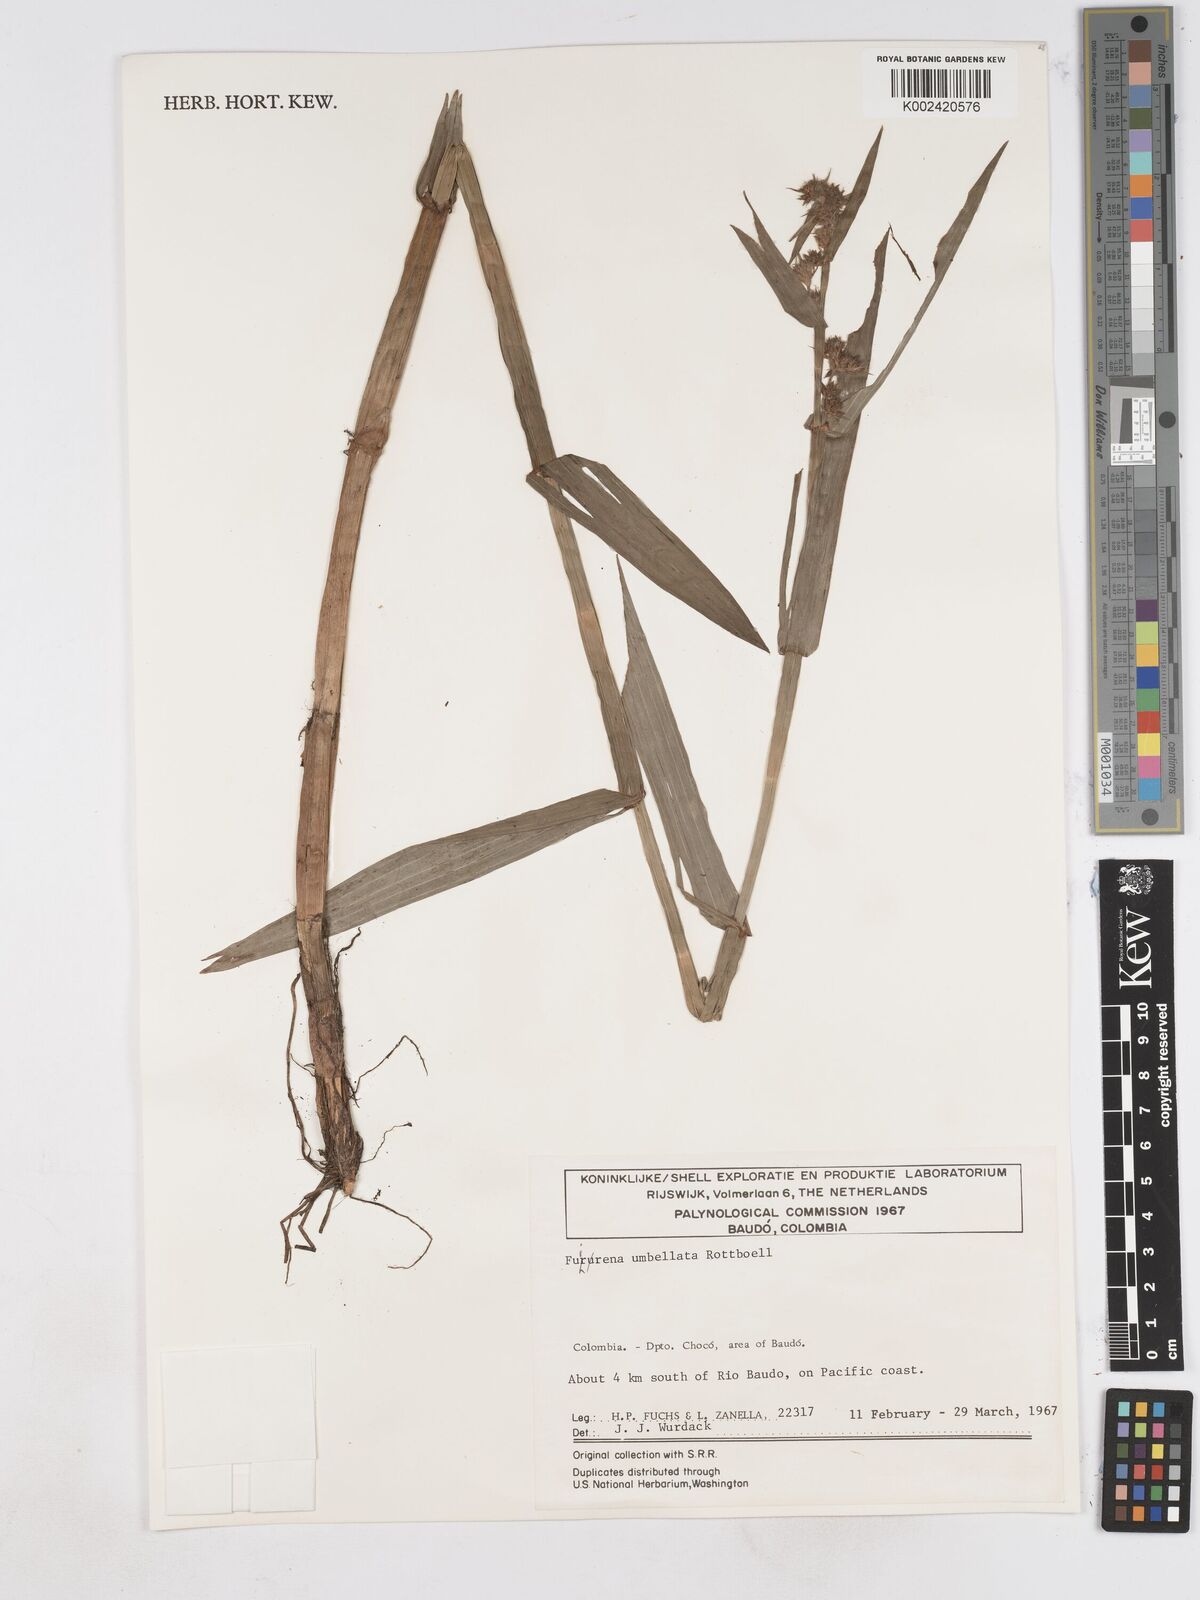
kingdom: Plantae
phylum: Tracheophyta
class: Liliopsida
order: Poales
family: Cyperaceae
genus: Fuirena
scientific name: Fuirena umbellata
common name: Yefen
